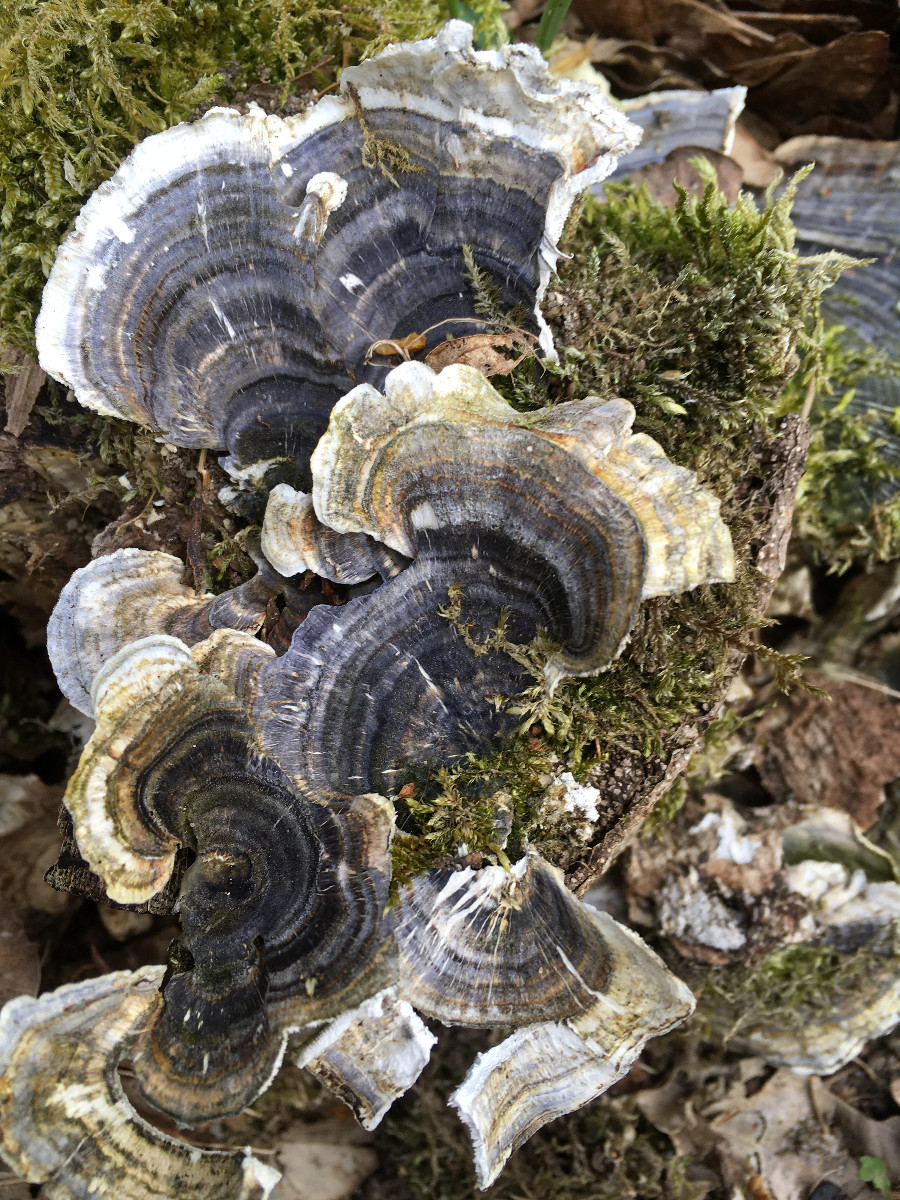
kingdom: Fungi
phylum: Basidiomycota
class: Agaricomycetes
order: Polyporales
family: Polyporaceae
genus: Trametes
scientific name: Trametes versicolor
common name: broget læderporesvamp
